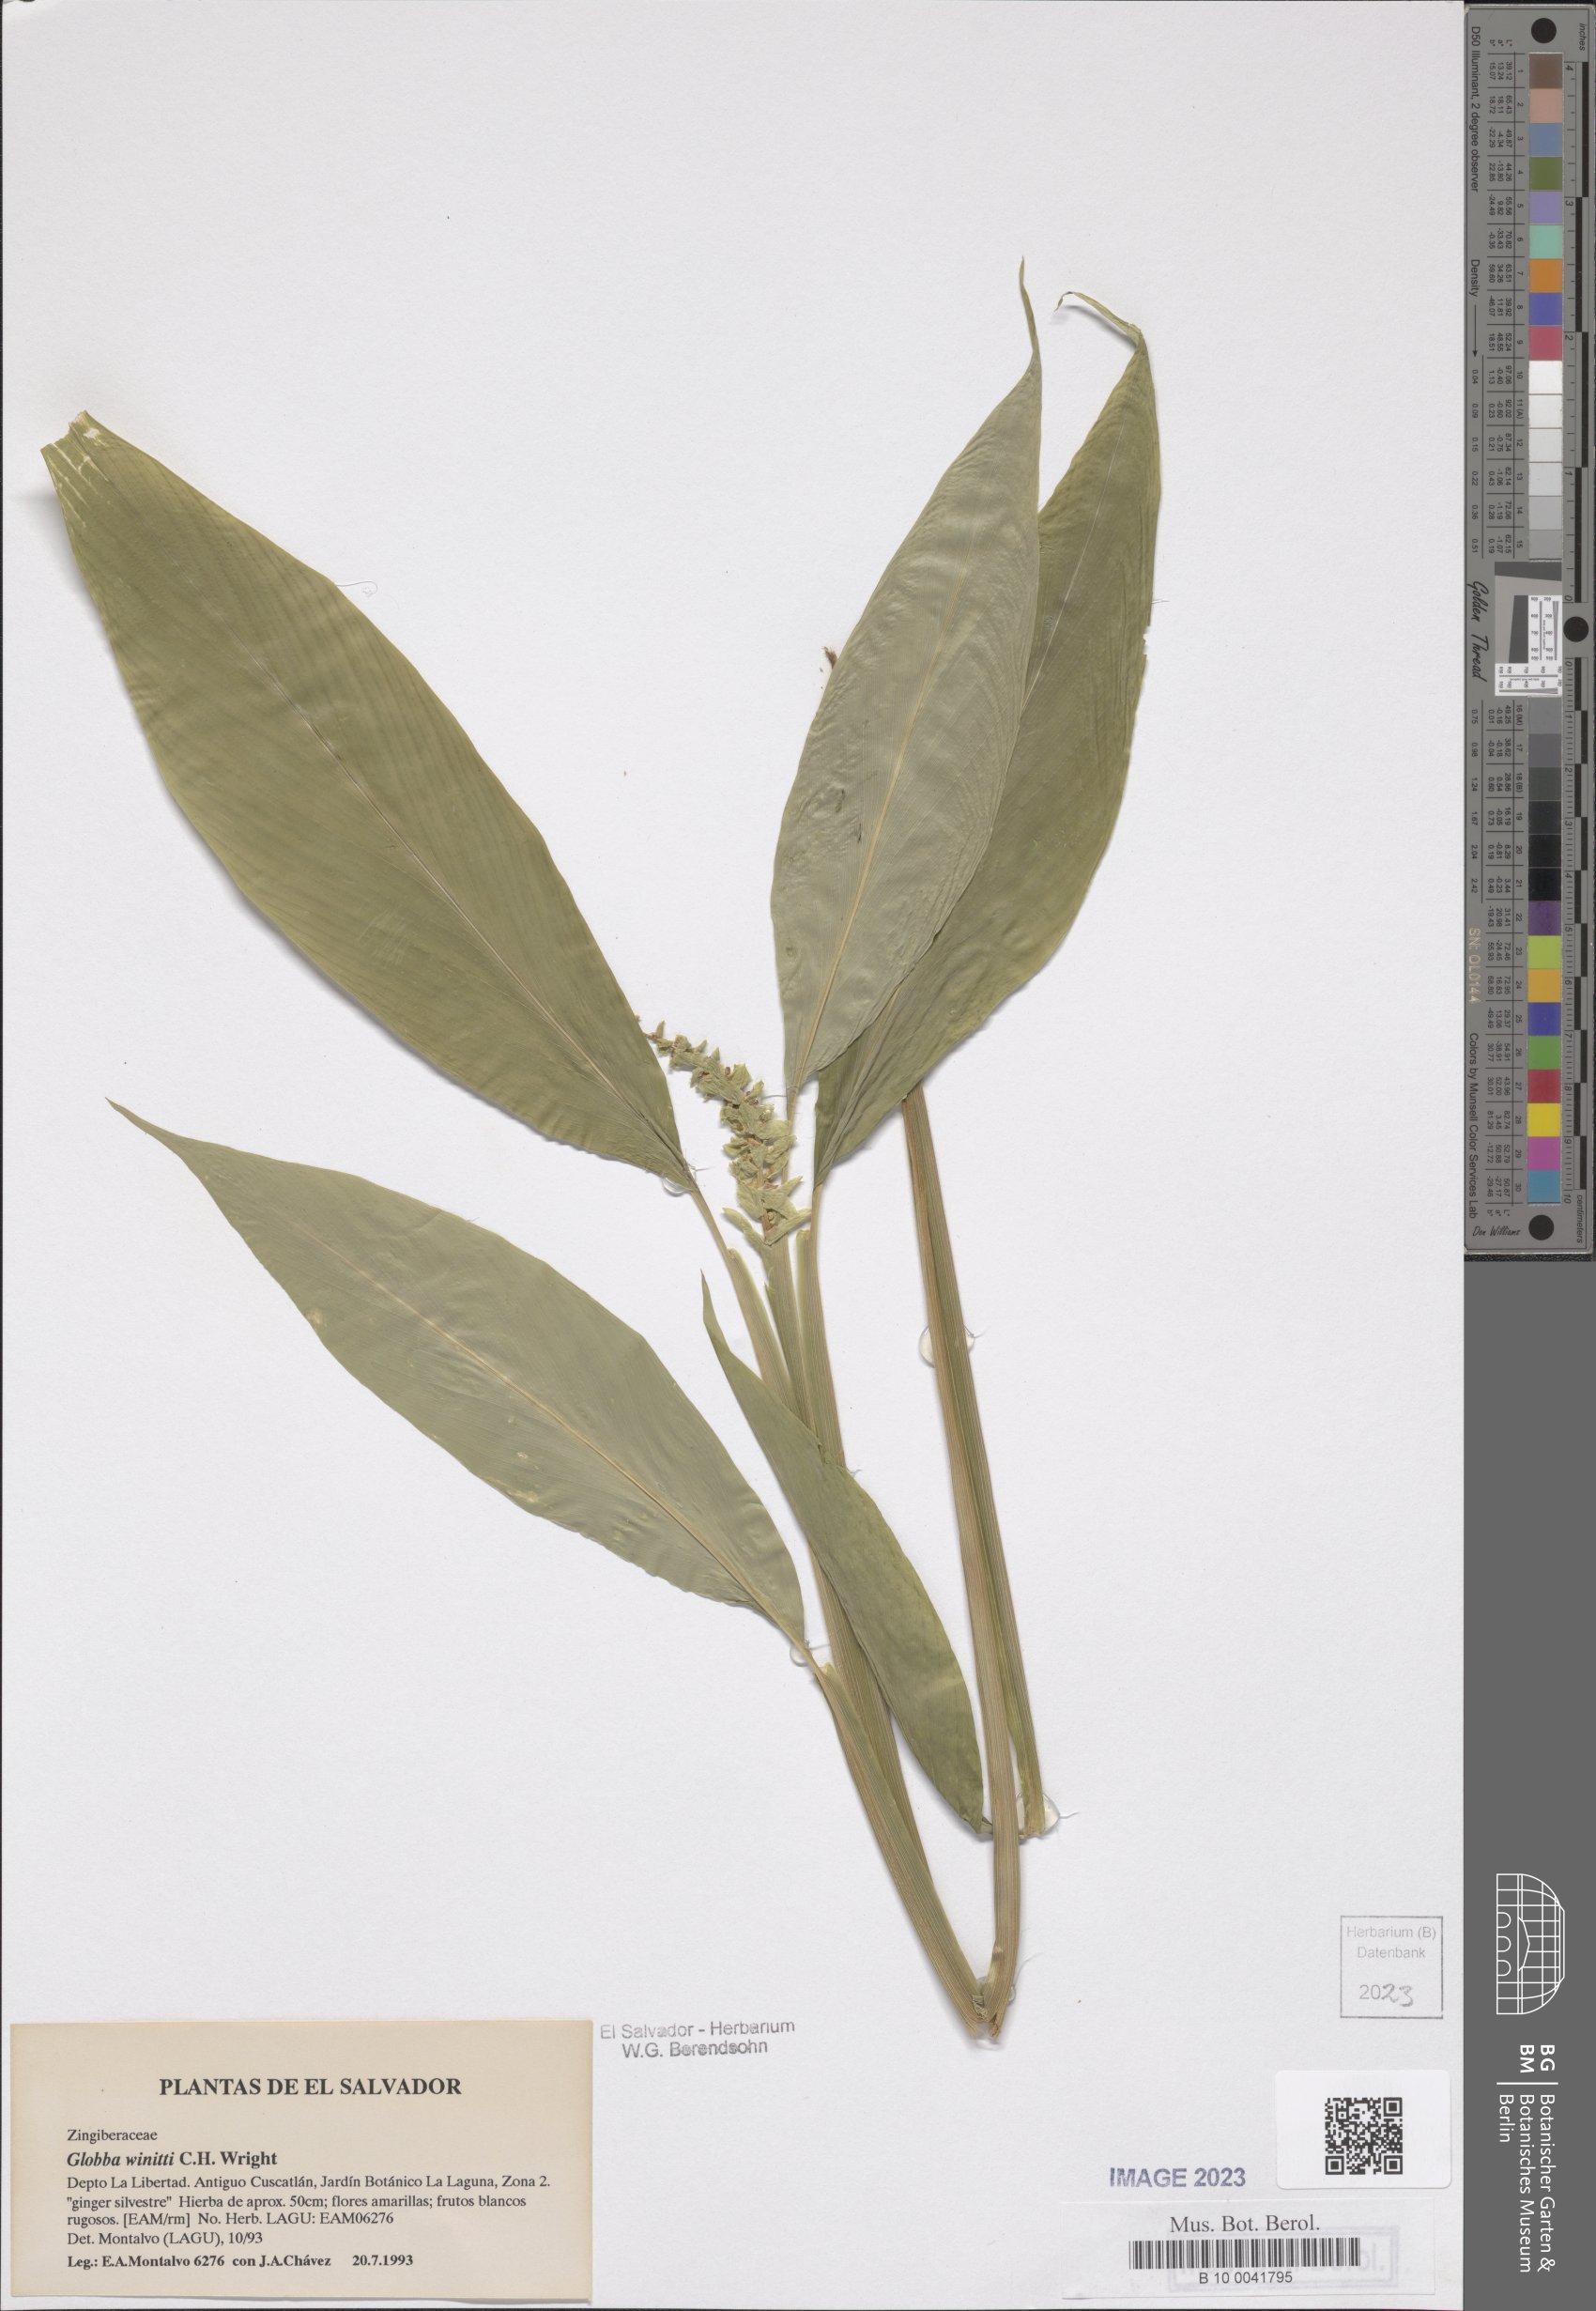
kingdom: Plantae
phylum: Tracheophyta
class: Liliopsida
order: Zingiberales
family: Zingiberaceae
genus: Globba
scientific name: Globba winitii
